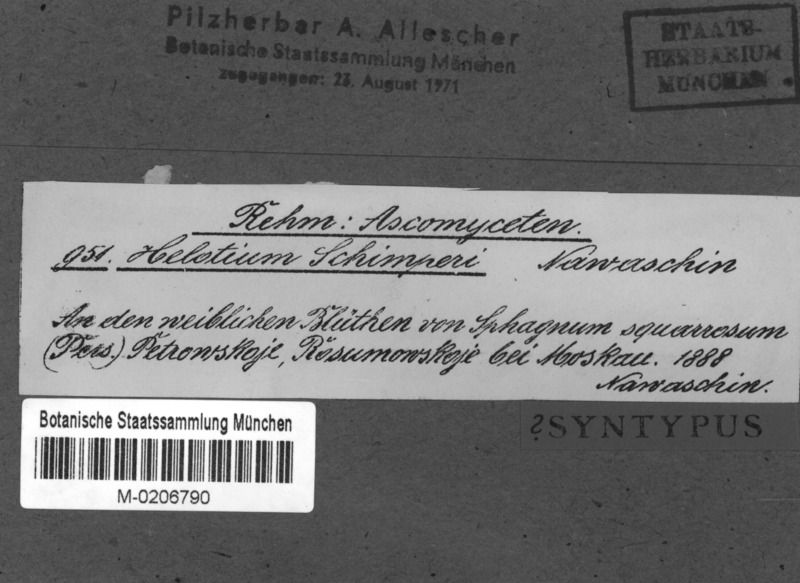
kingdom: Fungi
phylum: Ascomycota
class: Leotiomycetes
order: Helotiales
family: Tricladiaceae
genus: Helotium
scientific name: Helotium schimperi
